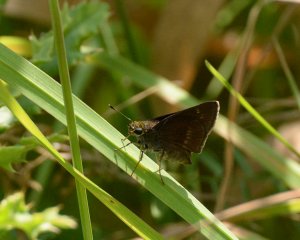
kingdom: Animalia
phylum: Arthropoda
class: Insecta
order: Lepidoptera
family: Hesperiidae
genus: Euphyes
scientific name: Euphyes vestris
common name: Dun Skipper
